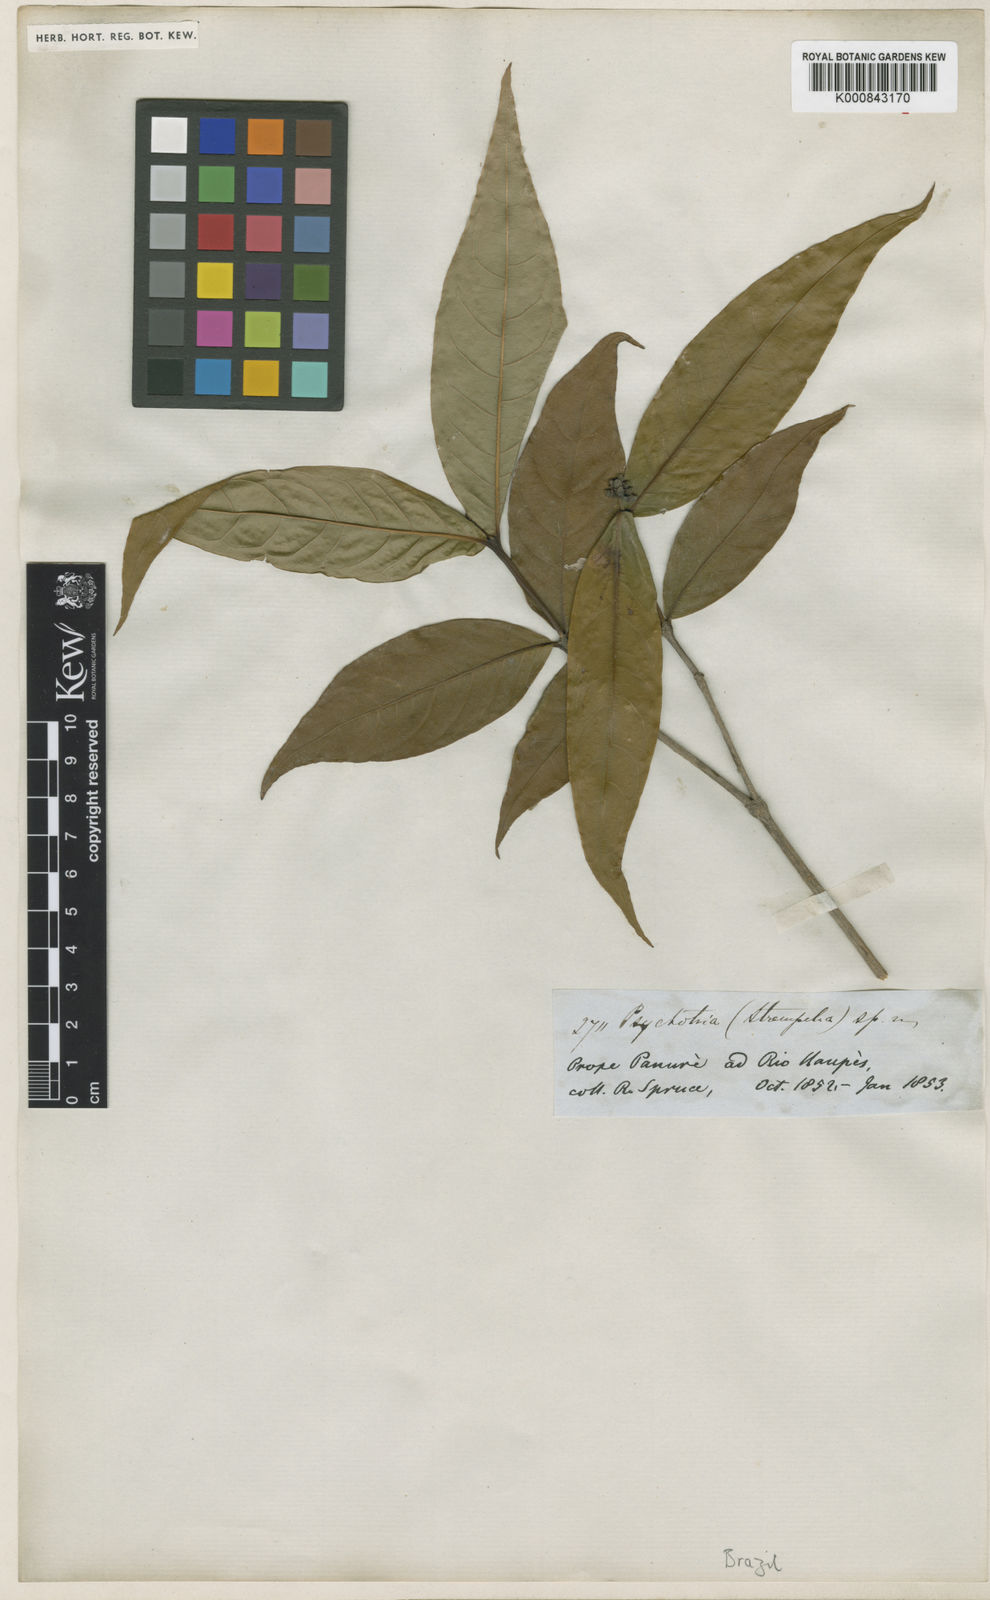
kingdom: Plantae
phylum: Tracheophyta
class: Magnoliopsida
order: Gentianales
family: Rubiaceae
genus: Rudgea
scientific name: Rudgea
